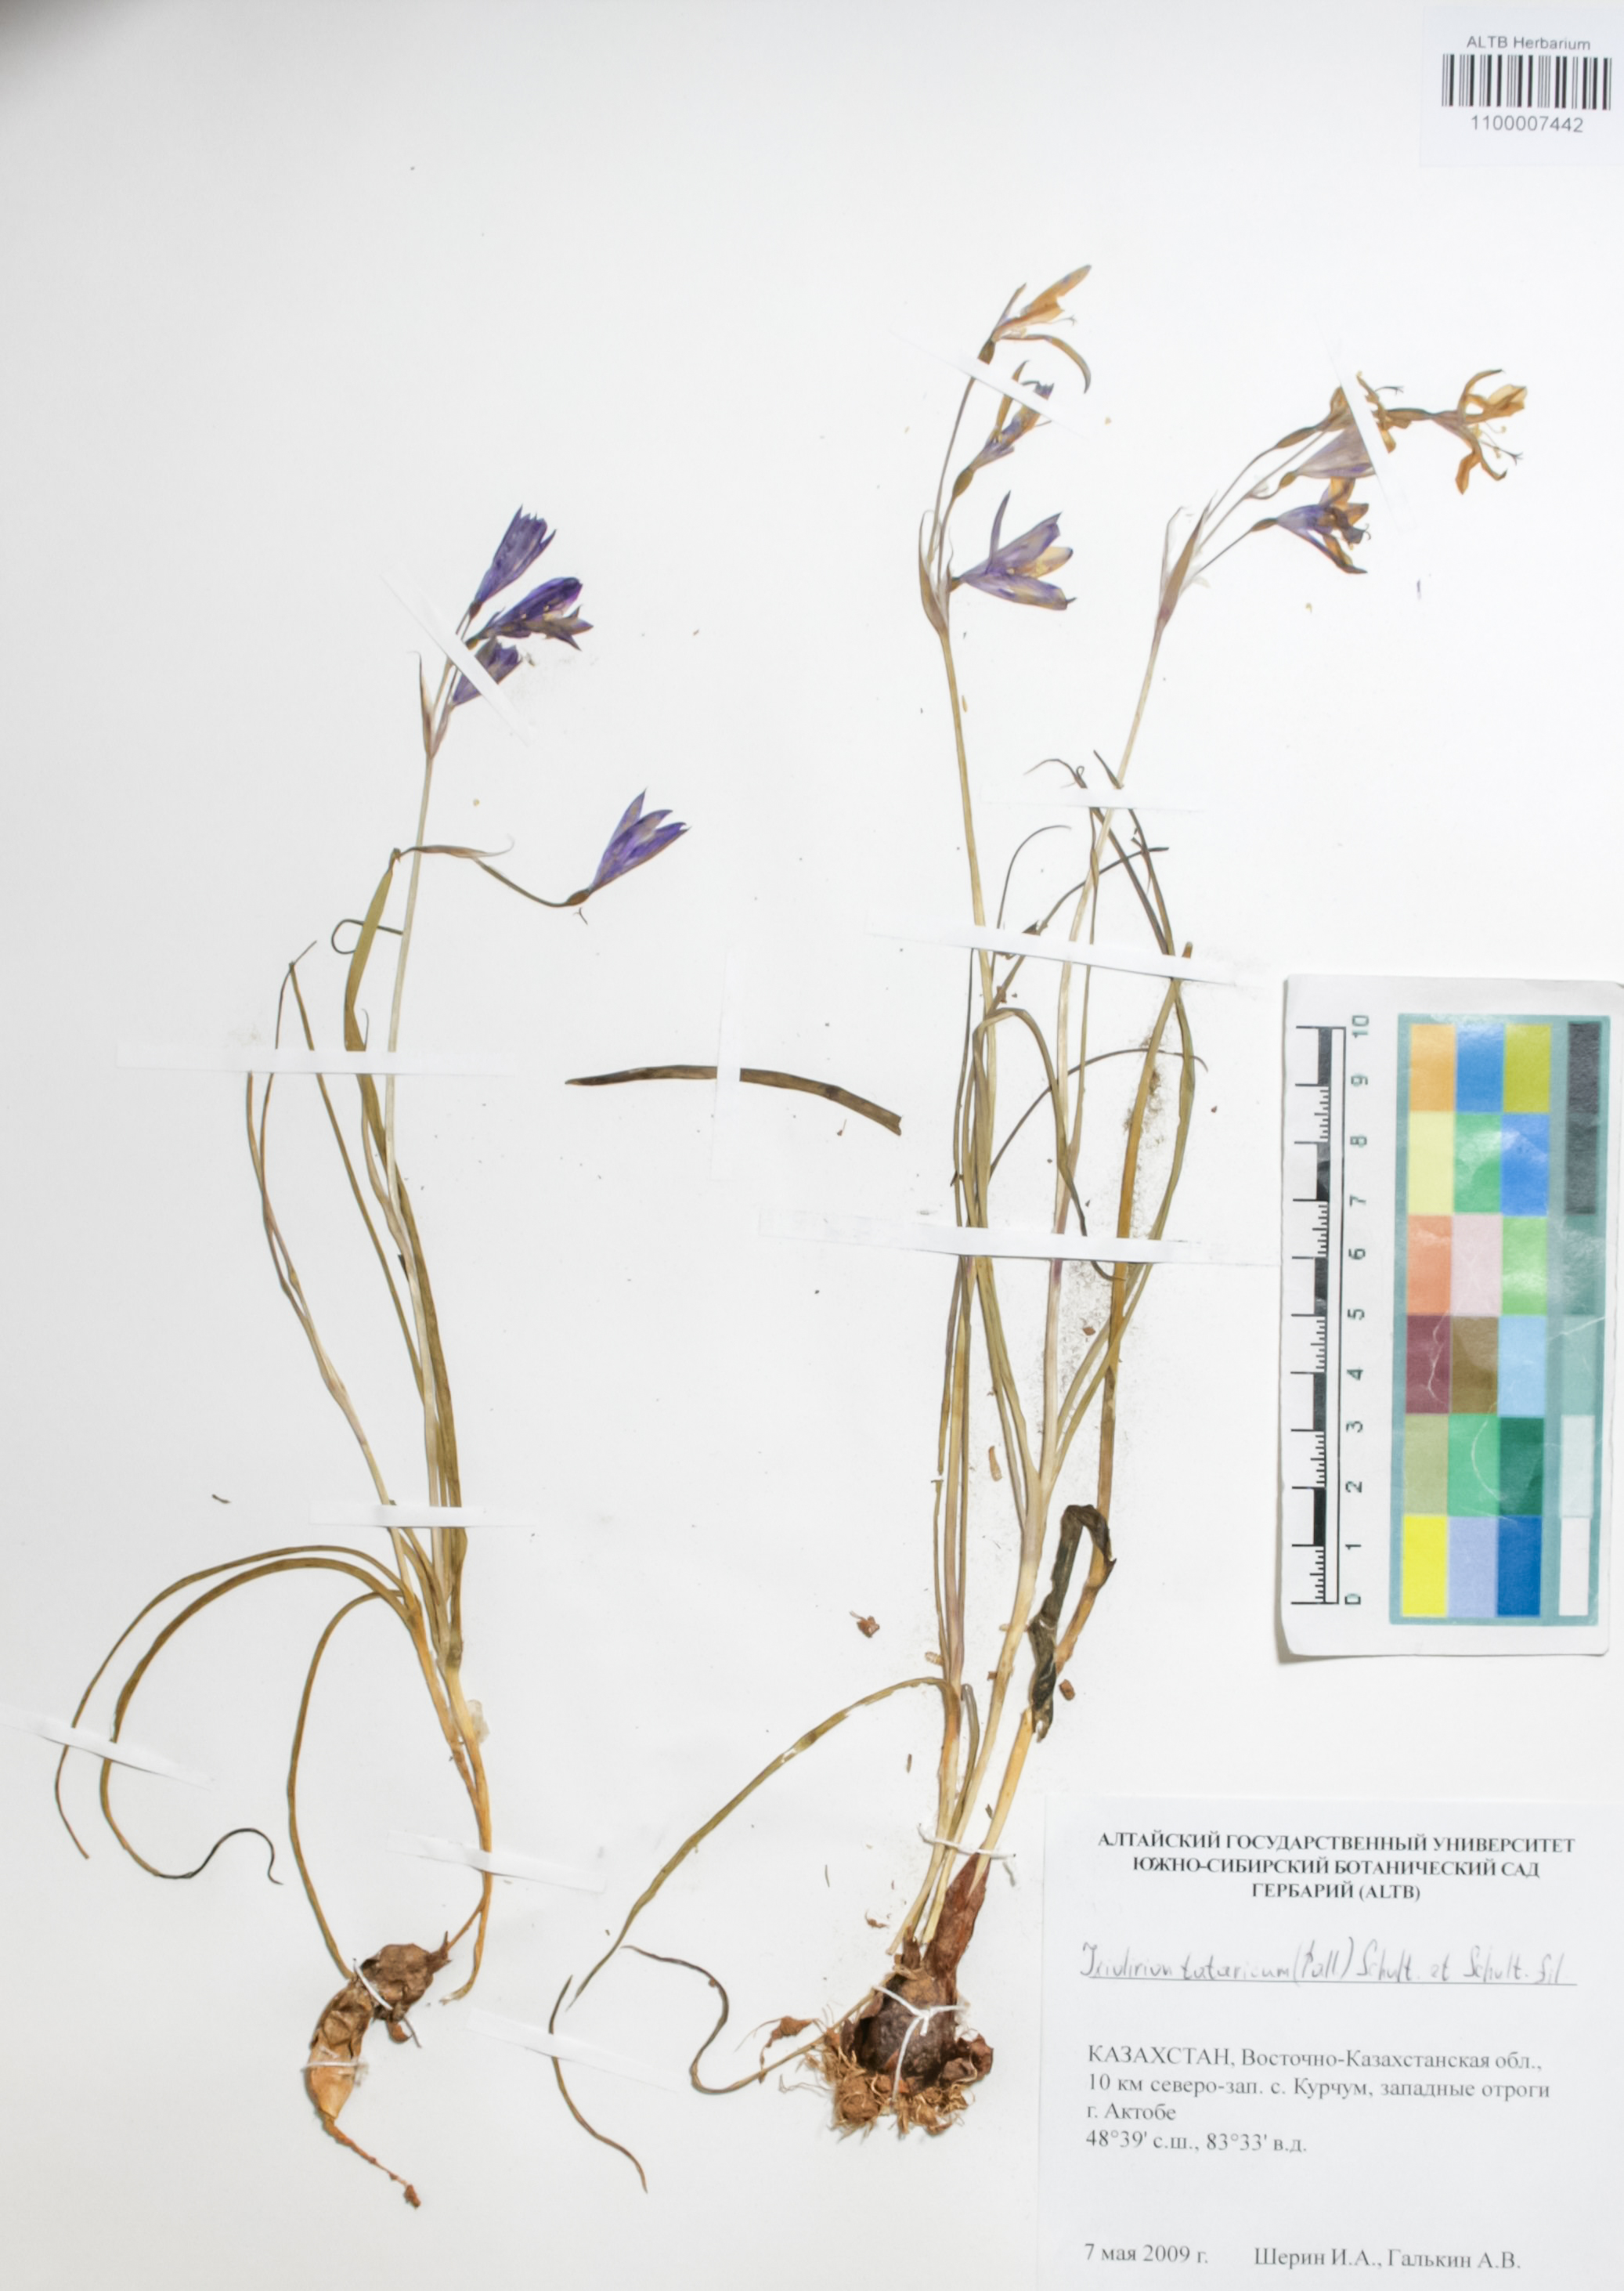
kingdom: Plantae
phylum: Tracheophyta
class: Liliopsida
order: Asparagales
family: Ixioliriaceae
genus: Ixiolirion
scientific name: Ixiolirion tataricum
